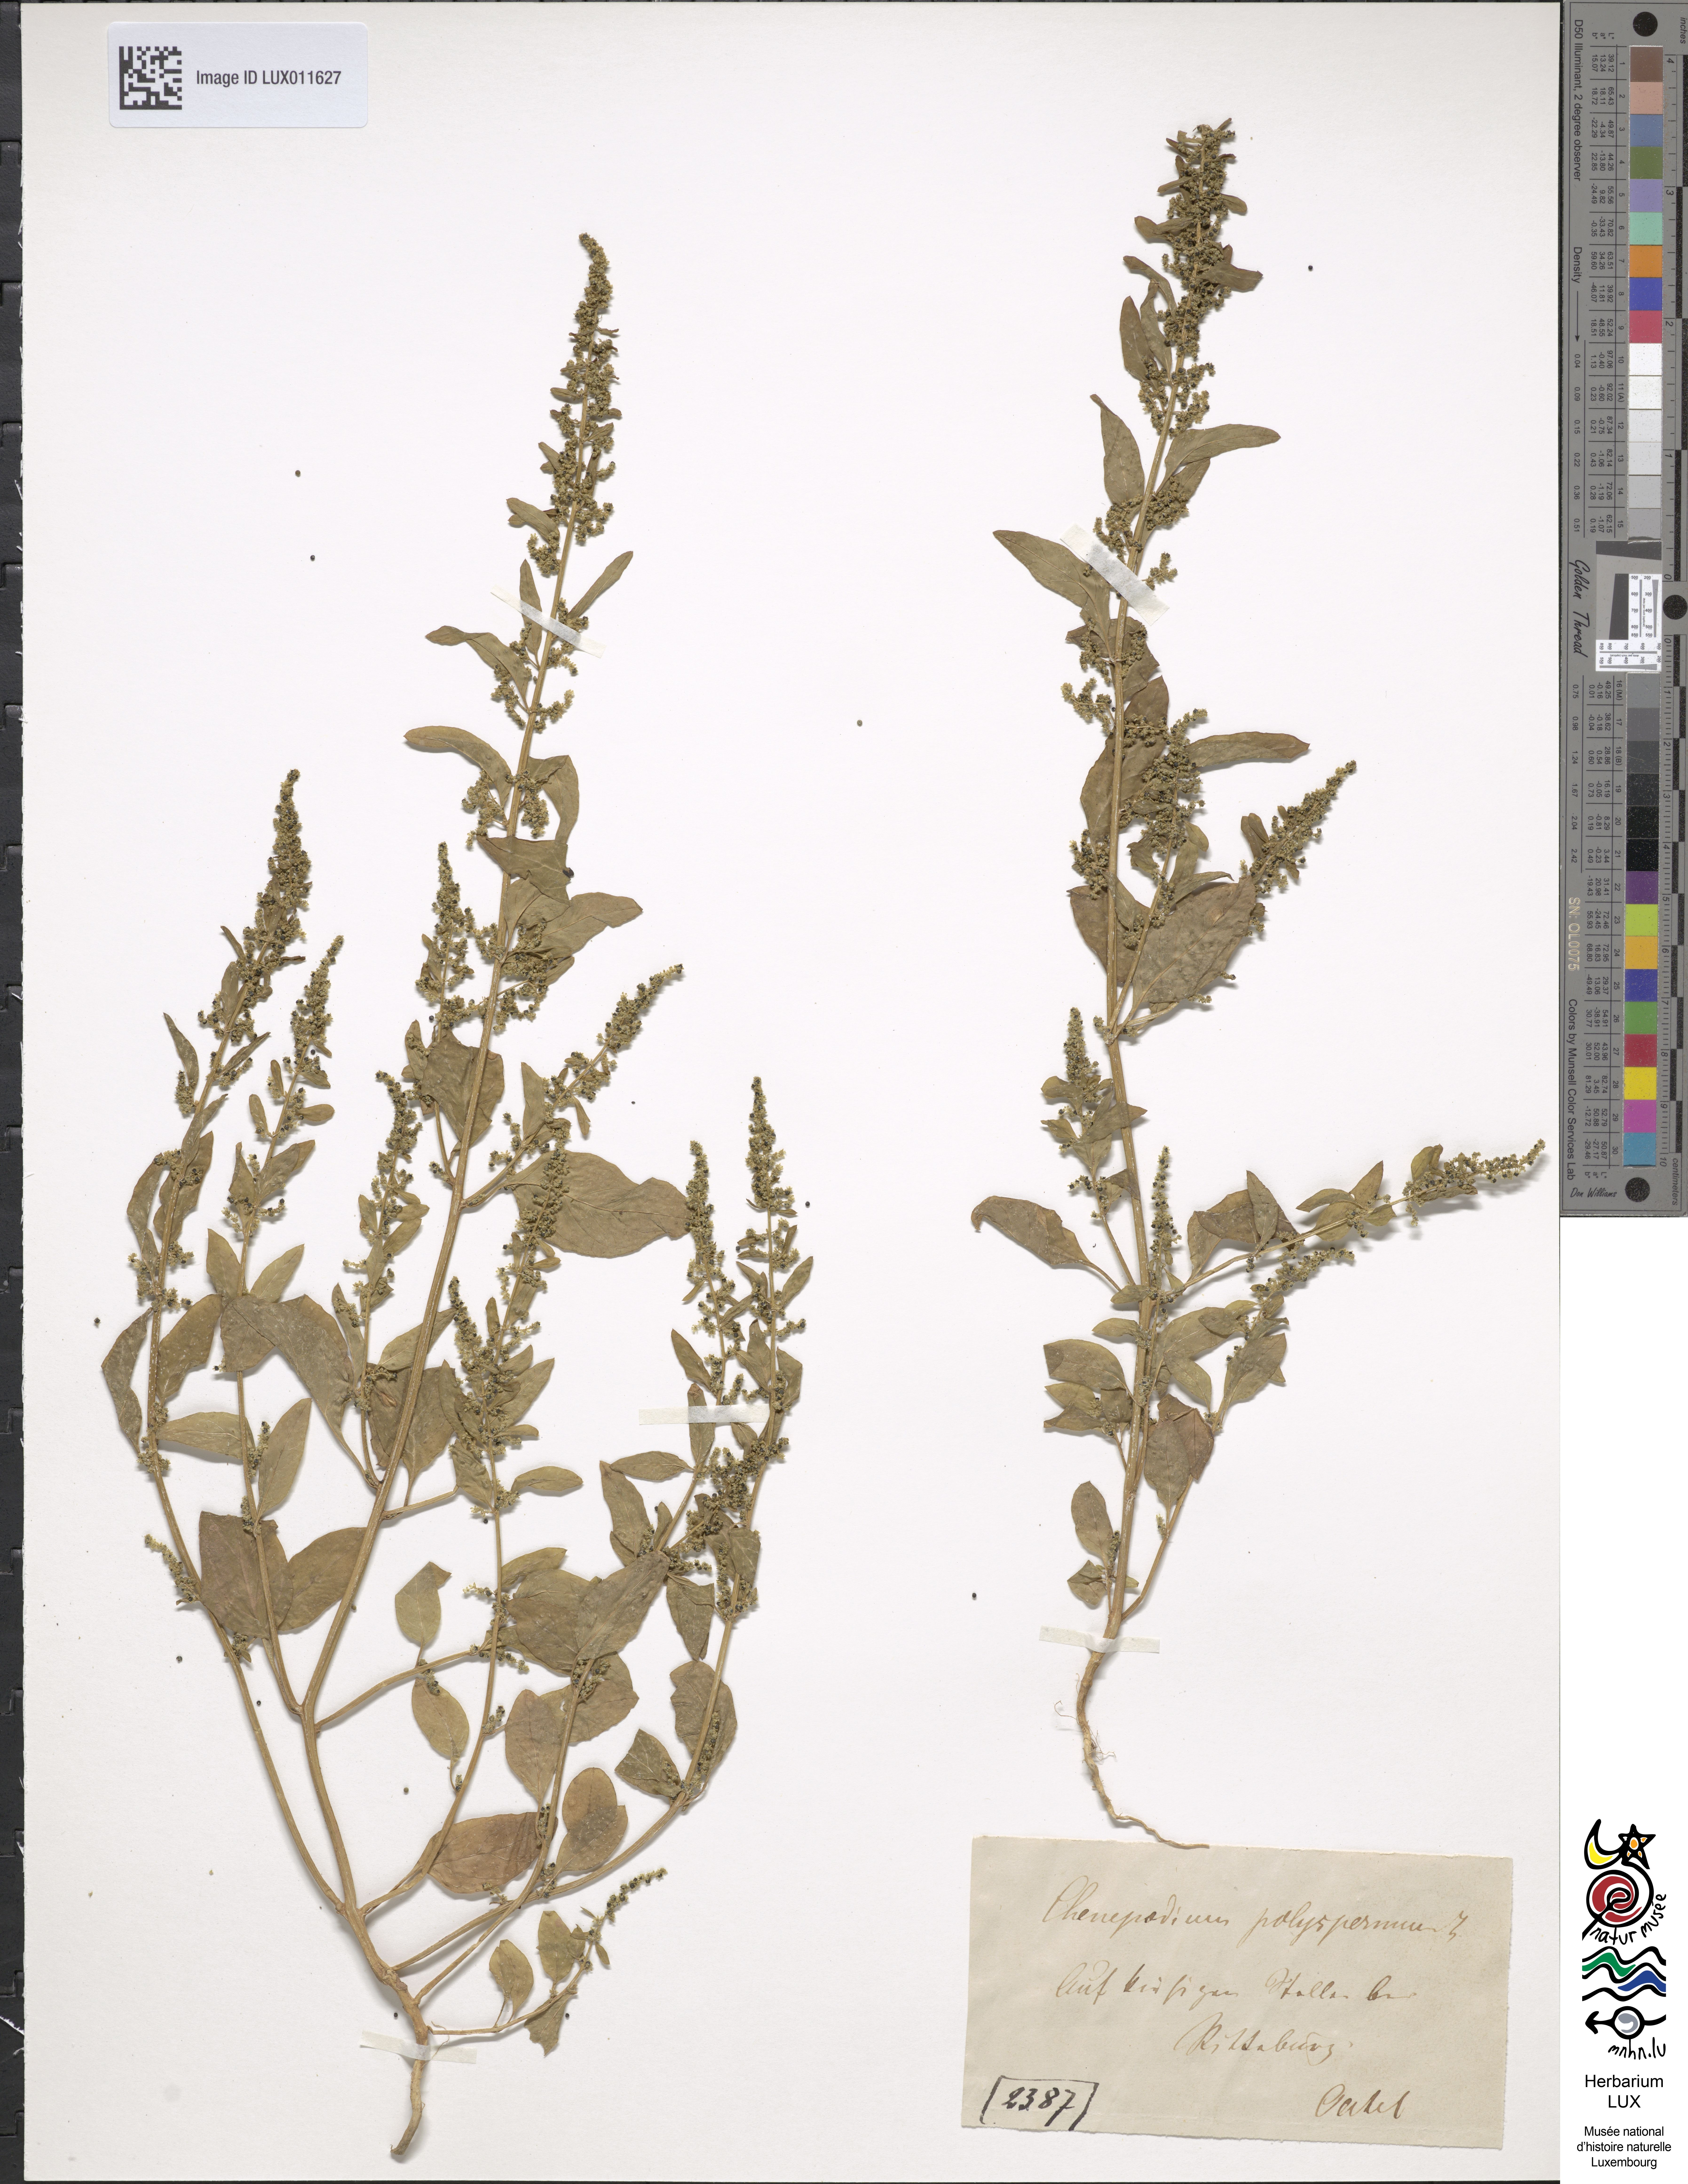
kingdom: Plantae
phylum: Tracheophyta
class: Magnoliopsida
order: Caryophyllales
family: Amaranthaceae
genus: Lipandra
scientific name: Lipandra polysperma
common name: Many-seed goosefoot
